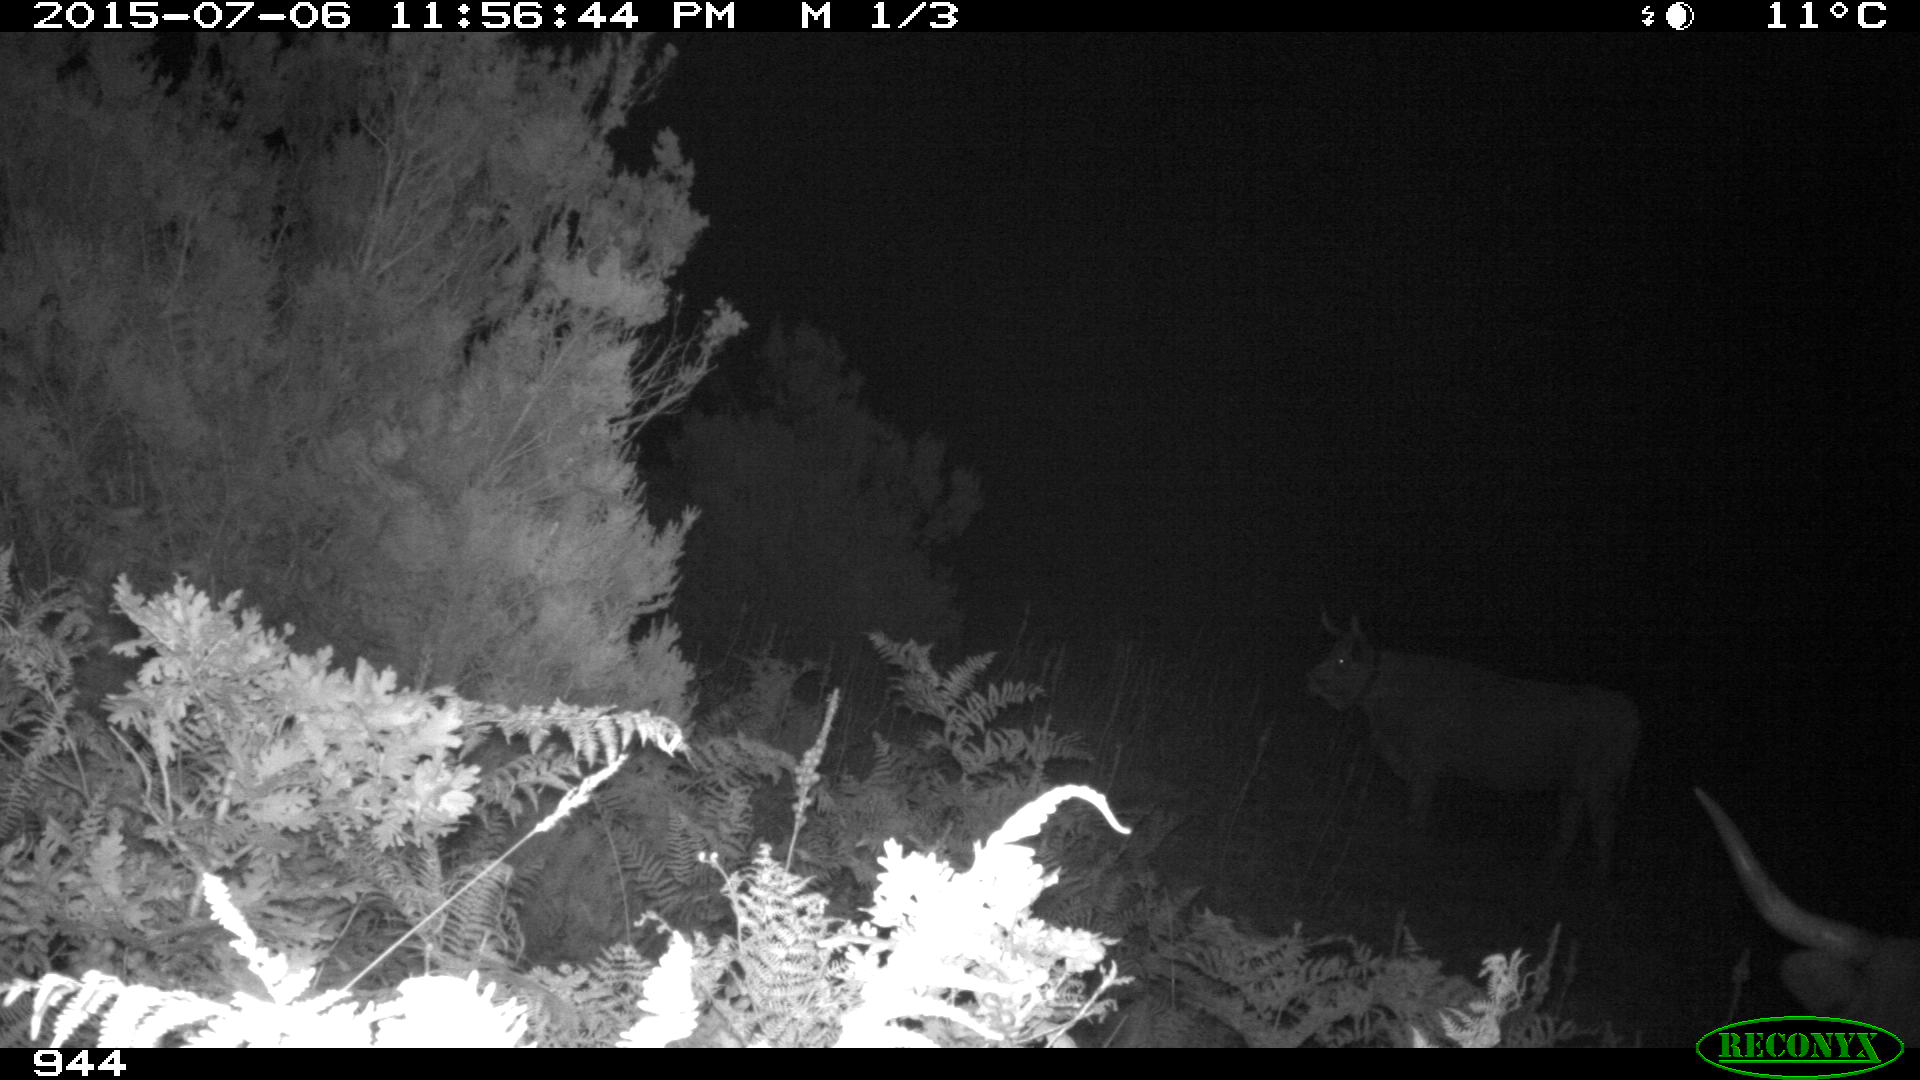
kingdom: Animalia
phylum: Chordata
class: Mammalia
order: Artiodactyla
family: Bovidae
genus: Bos
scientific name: Bos taurus
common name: Domesticated cattle
